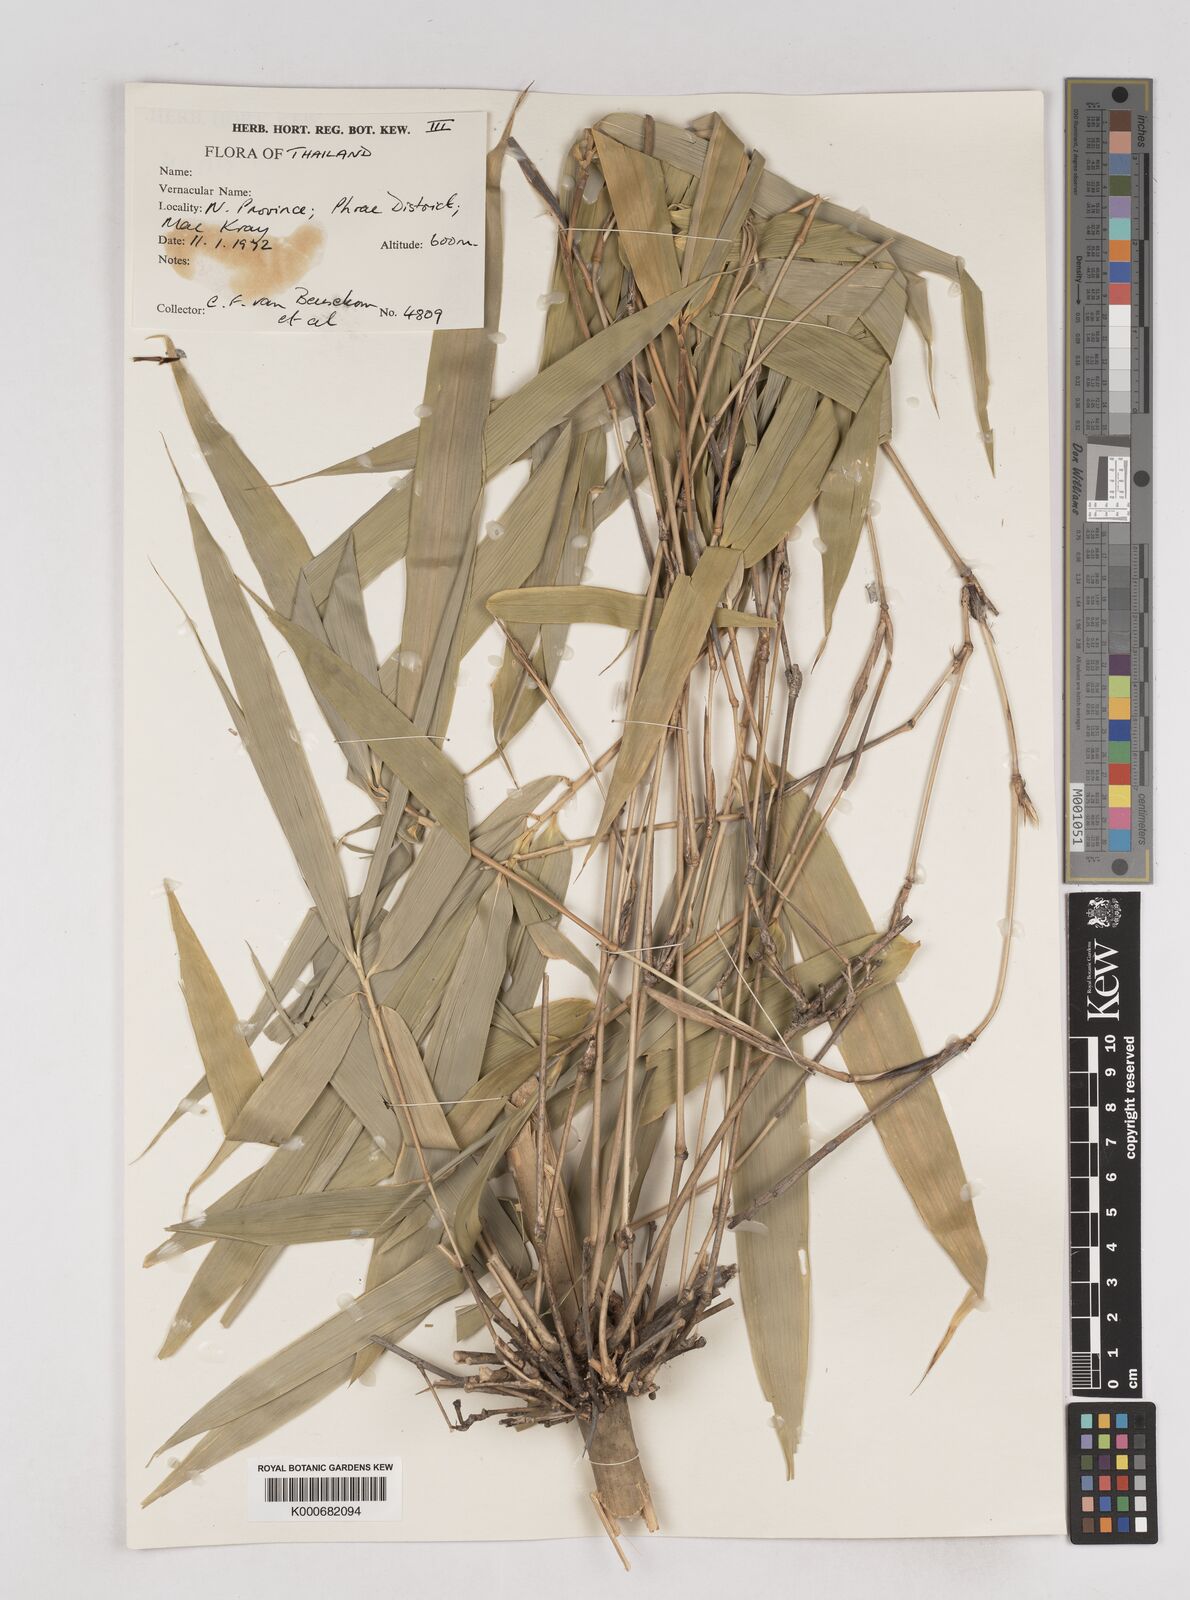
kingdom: Plantae
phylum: Tracheophyta
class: Liliopsida
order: Poales
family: Poaceae
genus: Schizostachyum
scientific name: Schizostachyum
